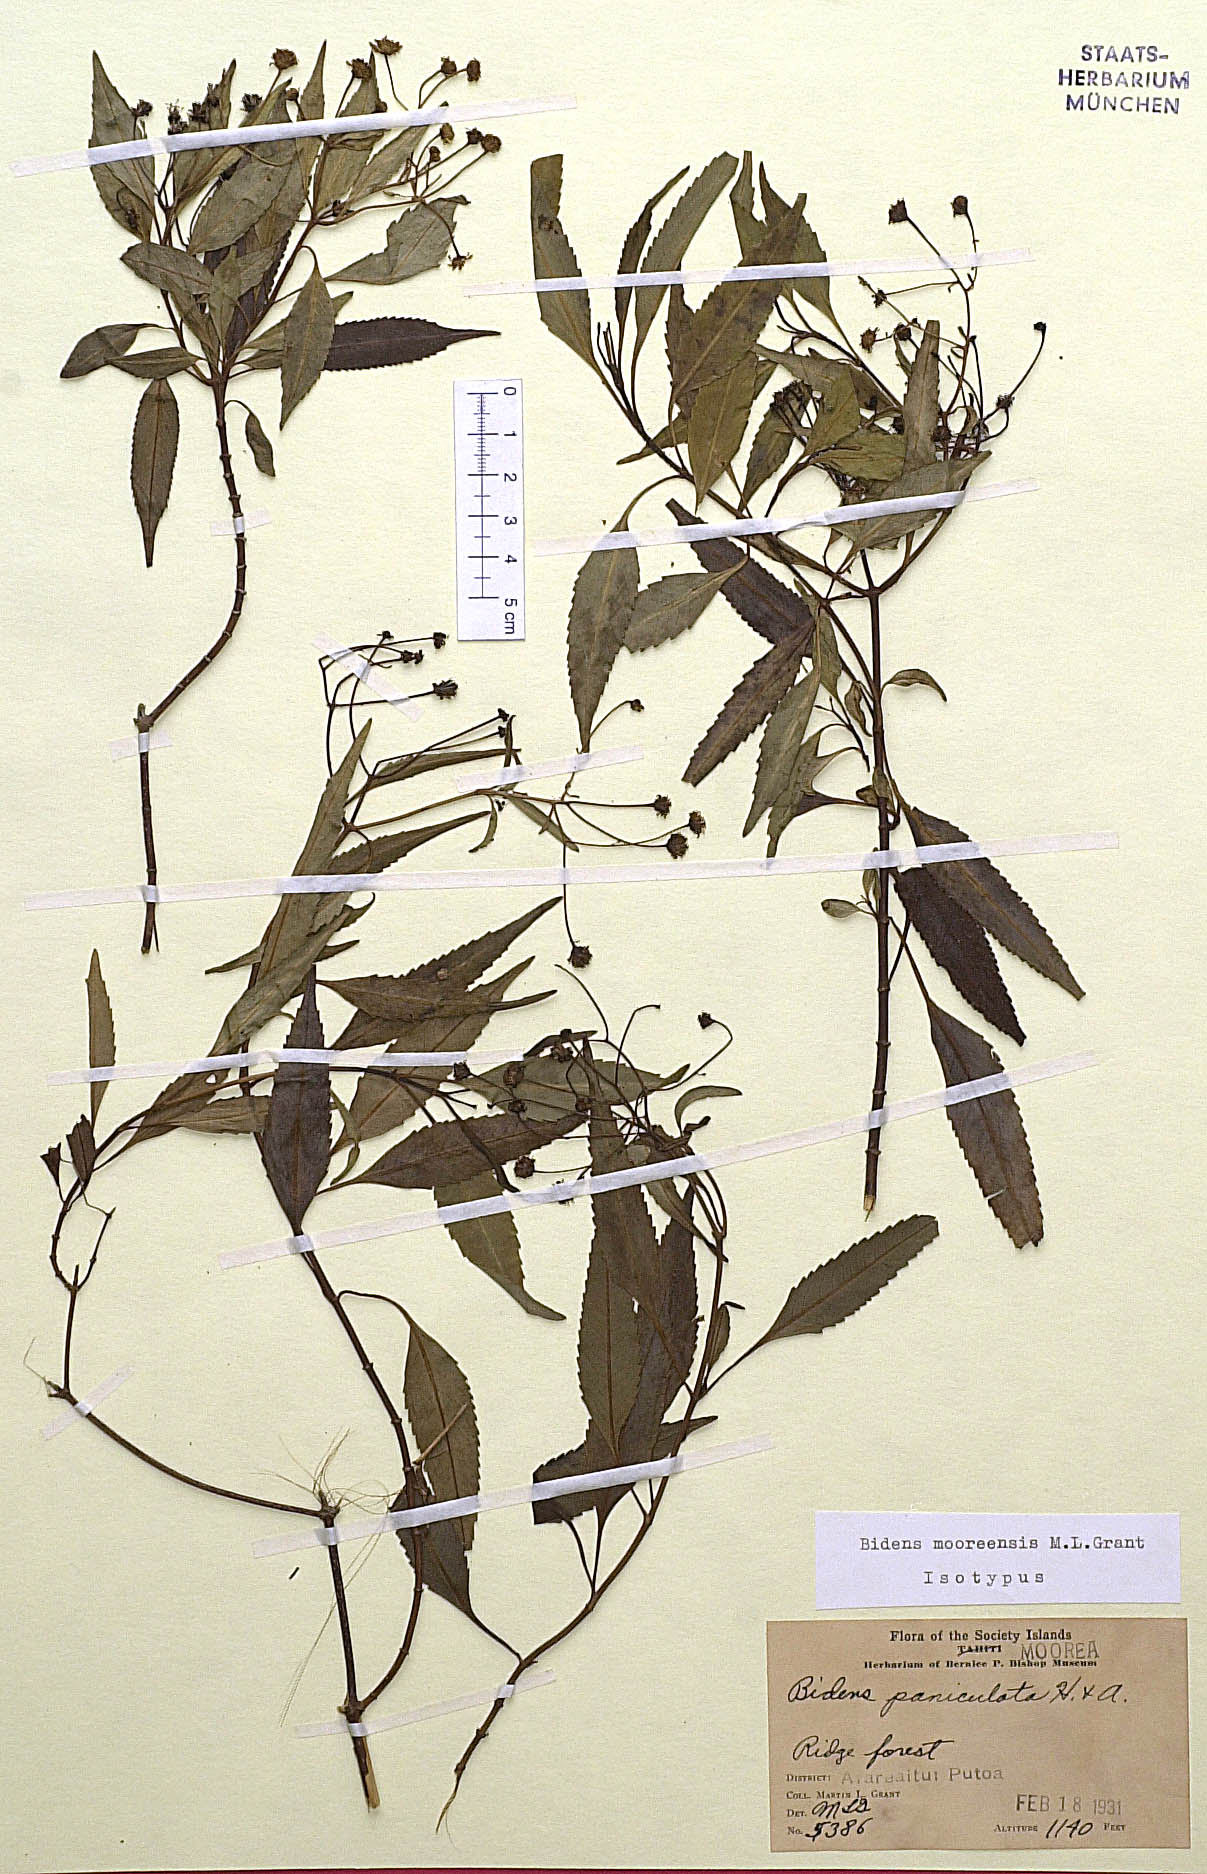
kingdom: Plantae
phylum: Tracheophyta
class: Magnoliopsida
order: Asterales
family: Asteraceae
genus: Bidens
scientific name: Bidens mooreensis
